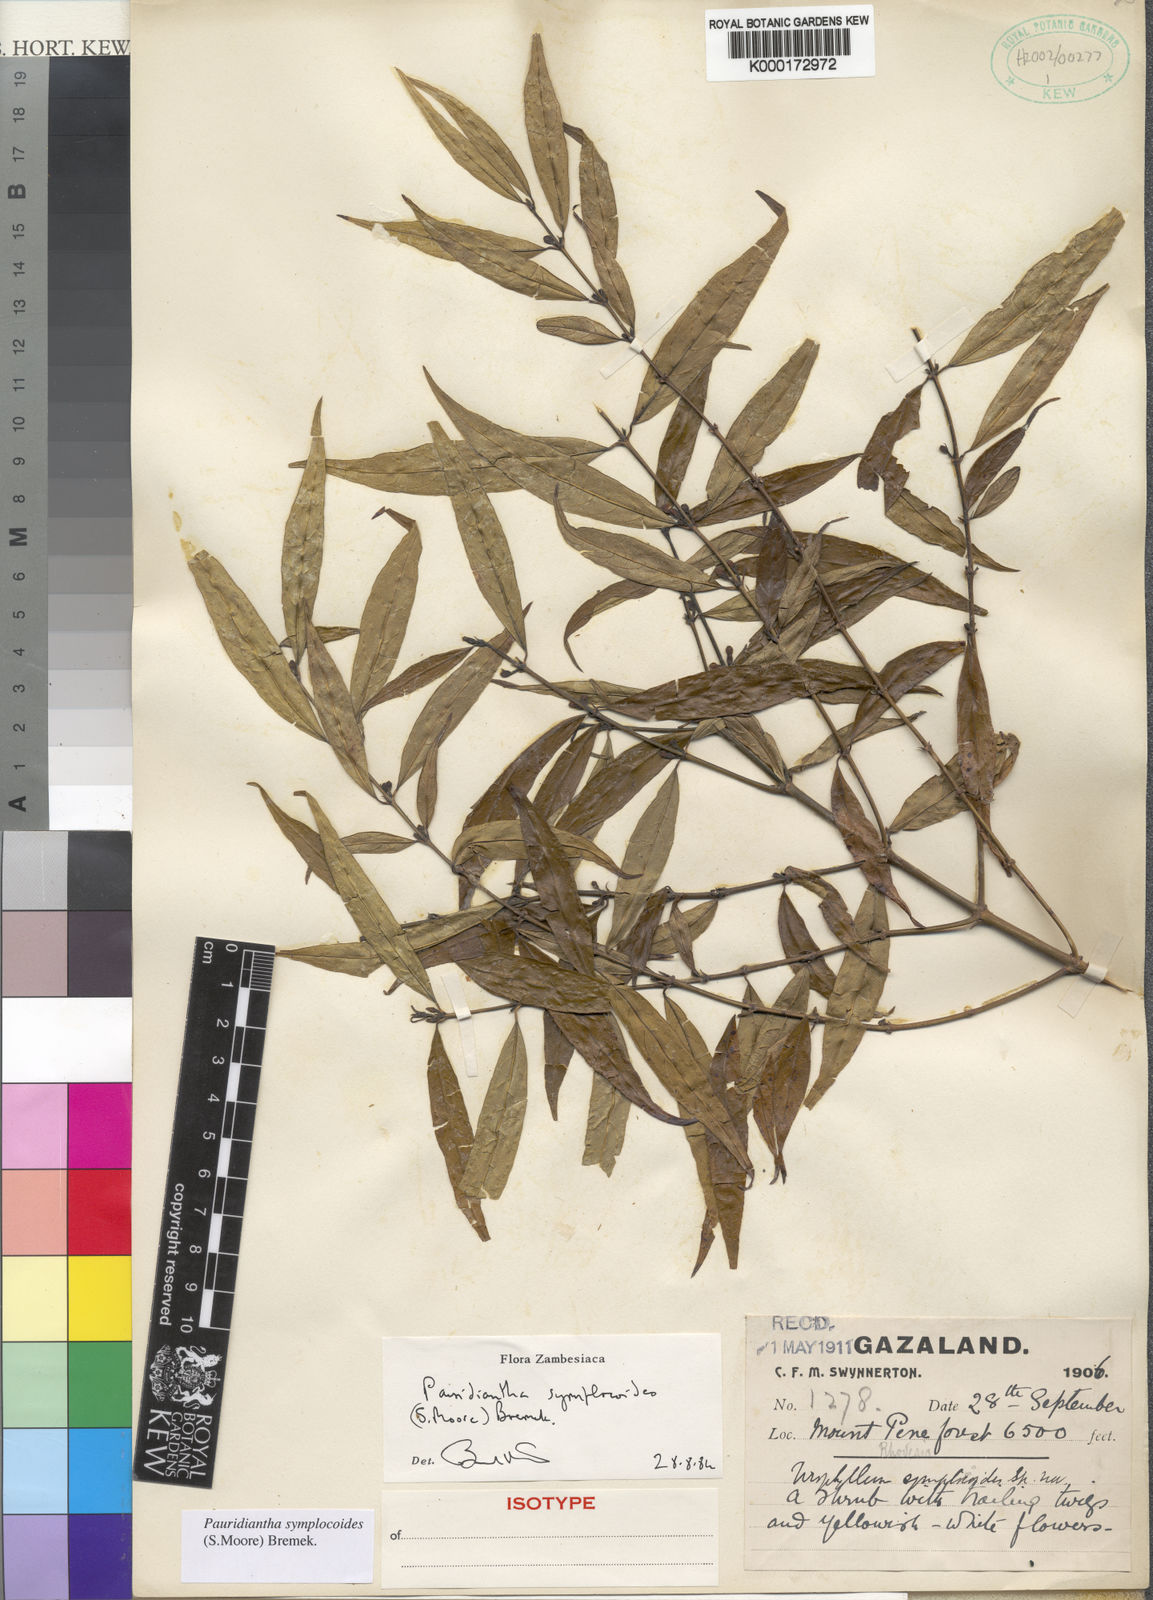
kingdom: Plantae
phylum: Tracheophyta
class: Magnoliopsida
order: Gentianales
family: Rubiaceae
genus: Pauridiantha
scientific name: Pauridiantha symplocoides
